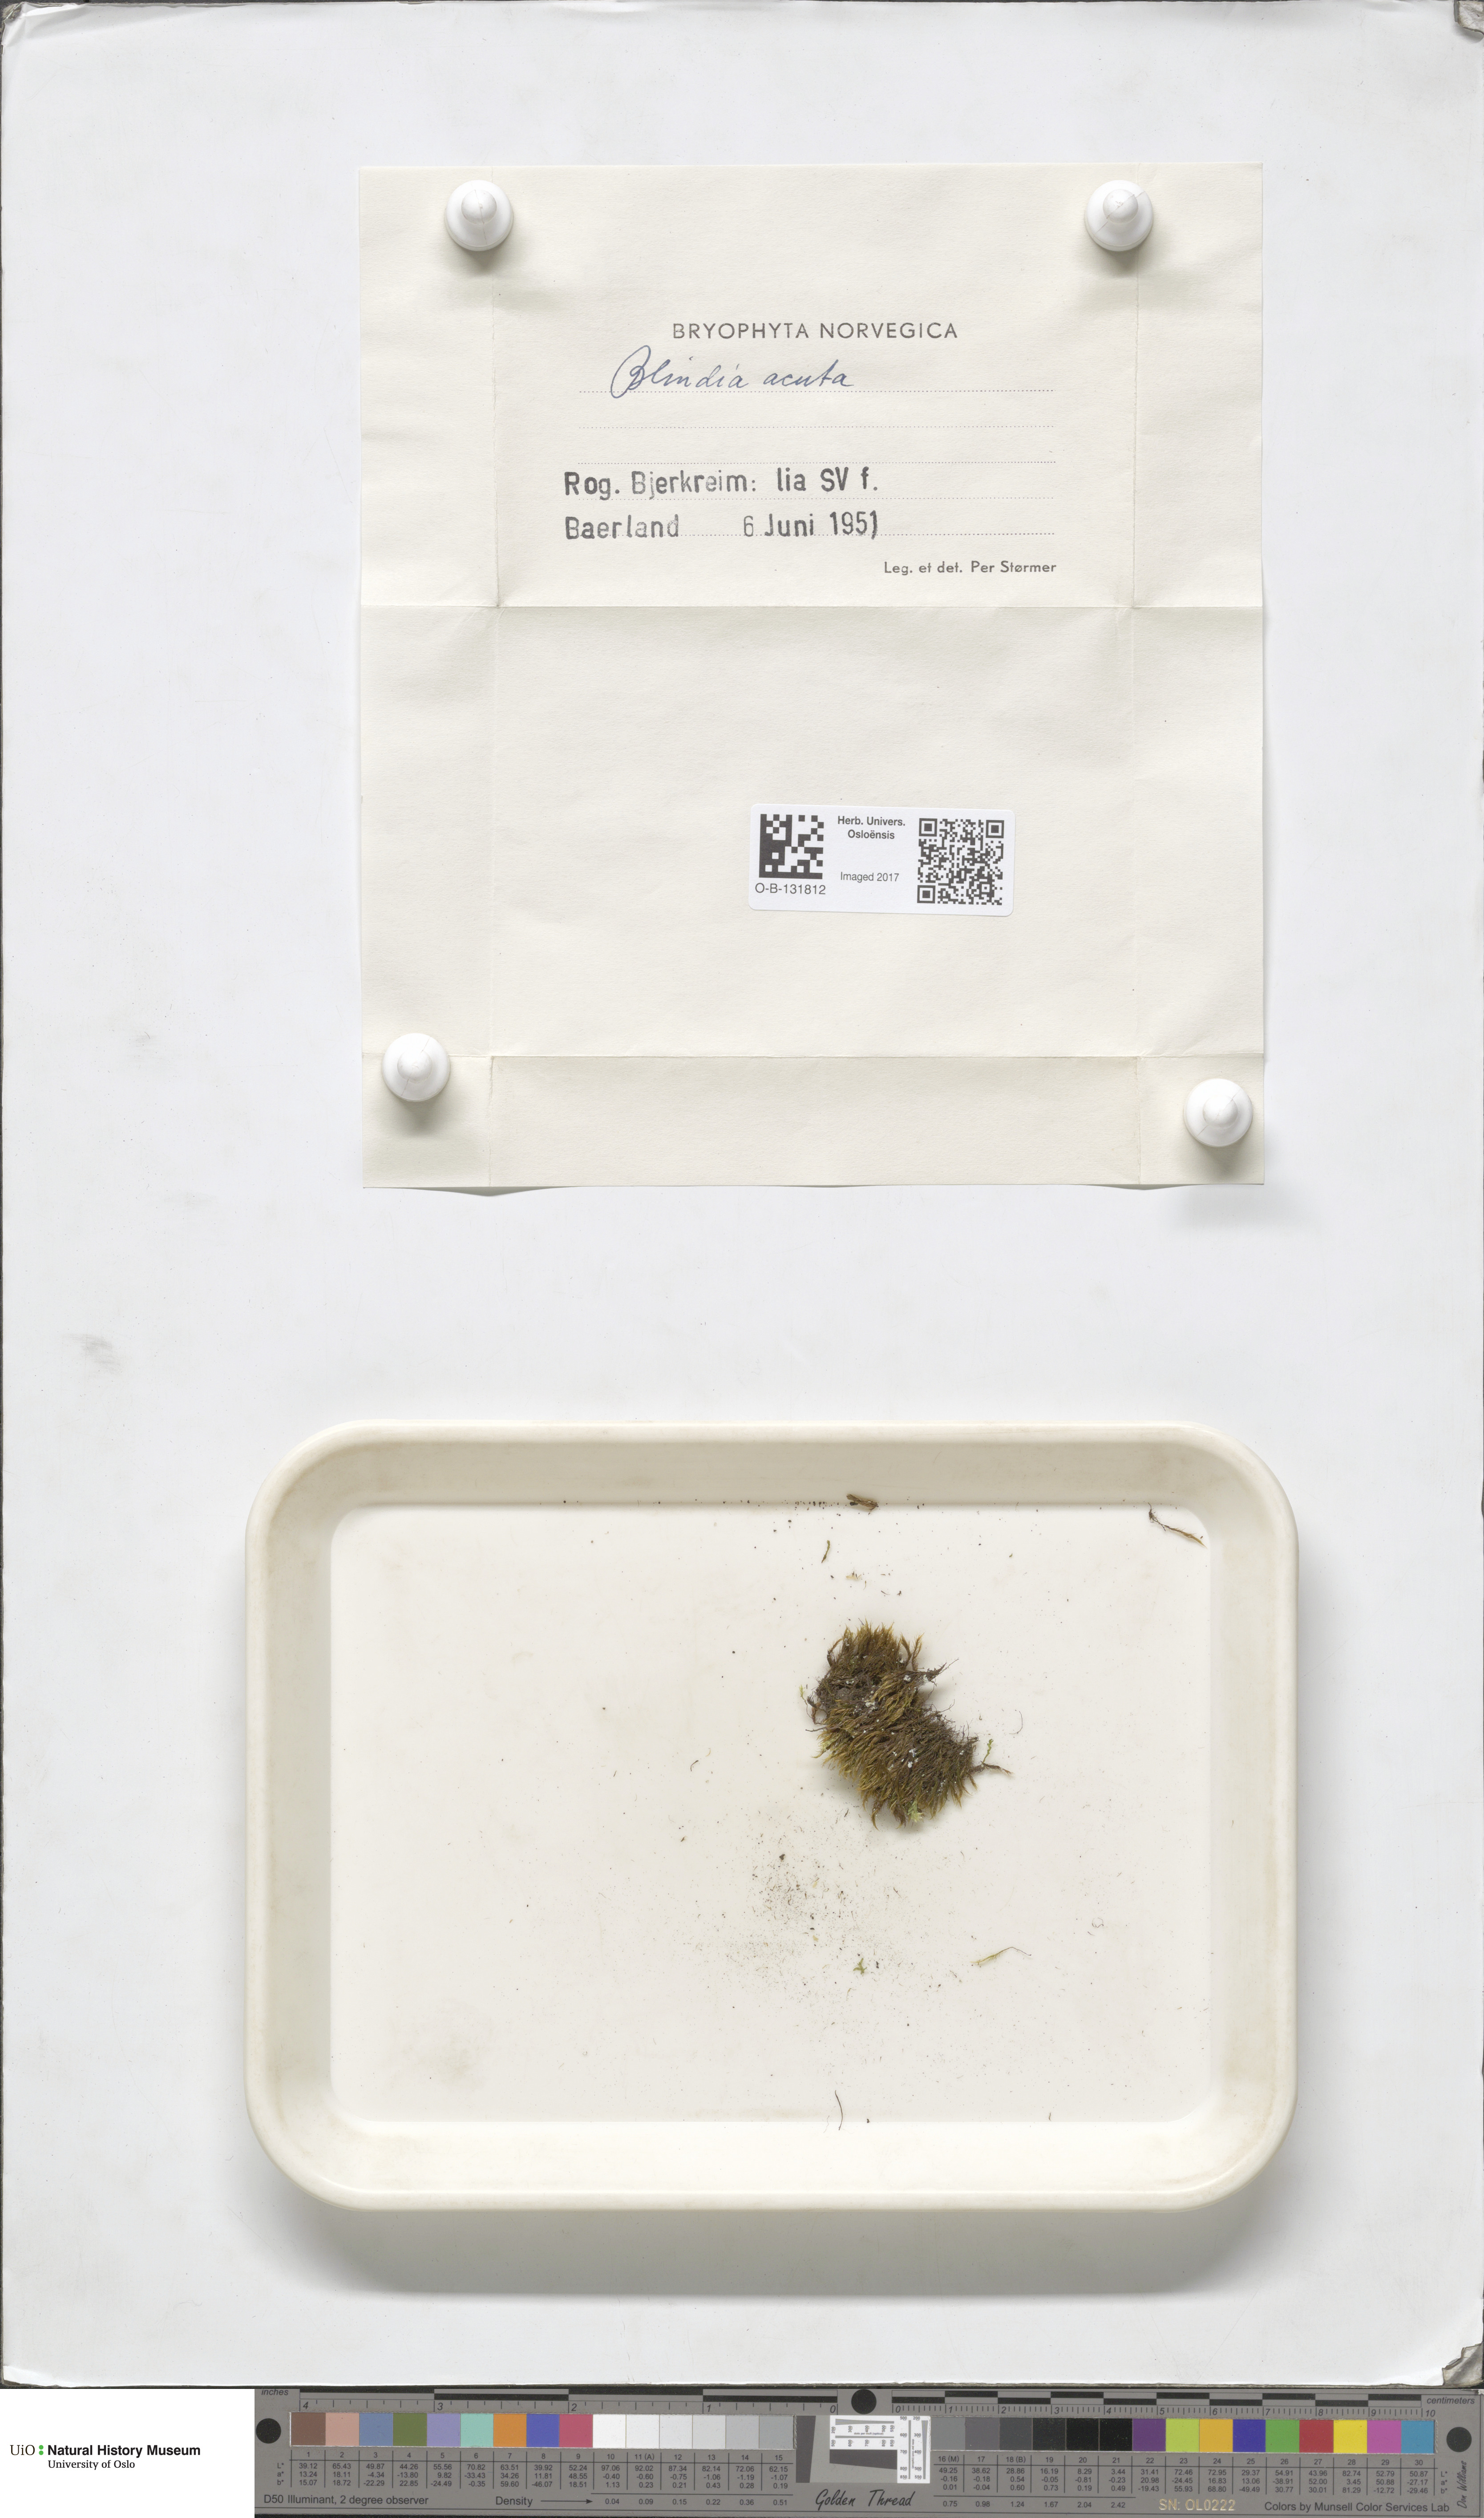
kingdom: Plantae
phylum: Bryophyta
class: Bryopsida
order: Grimmiales
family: Seligeriaceae
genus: Blindia
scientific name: Blindia acuta
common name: Sharp-leaved blind's moss
